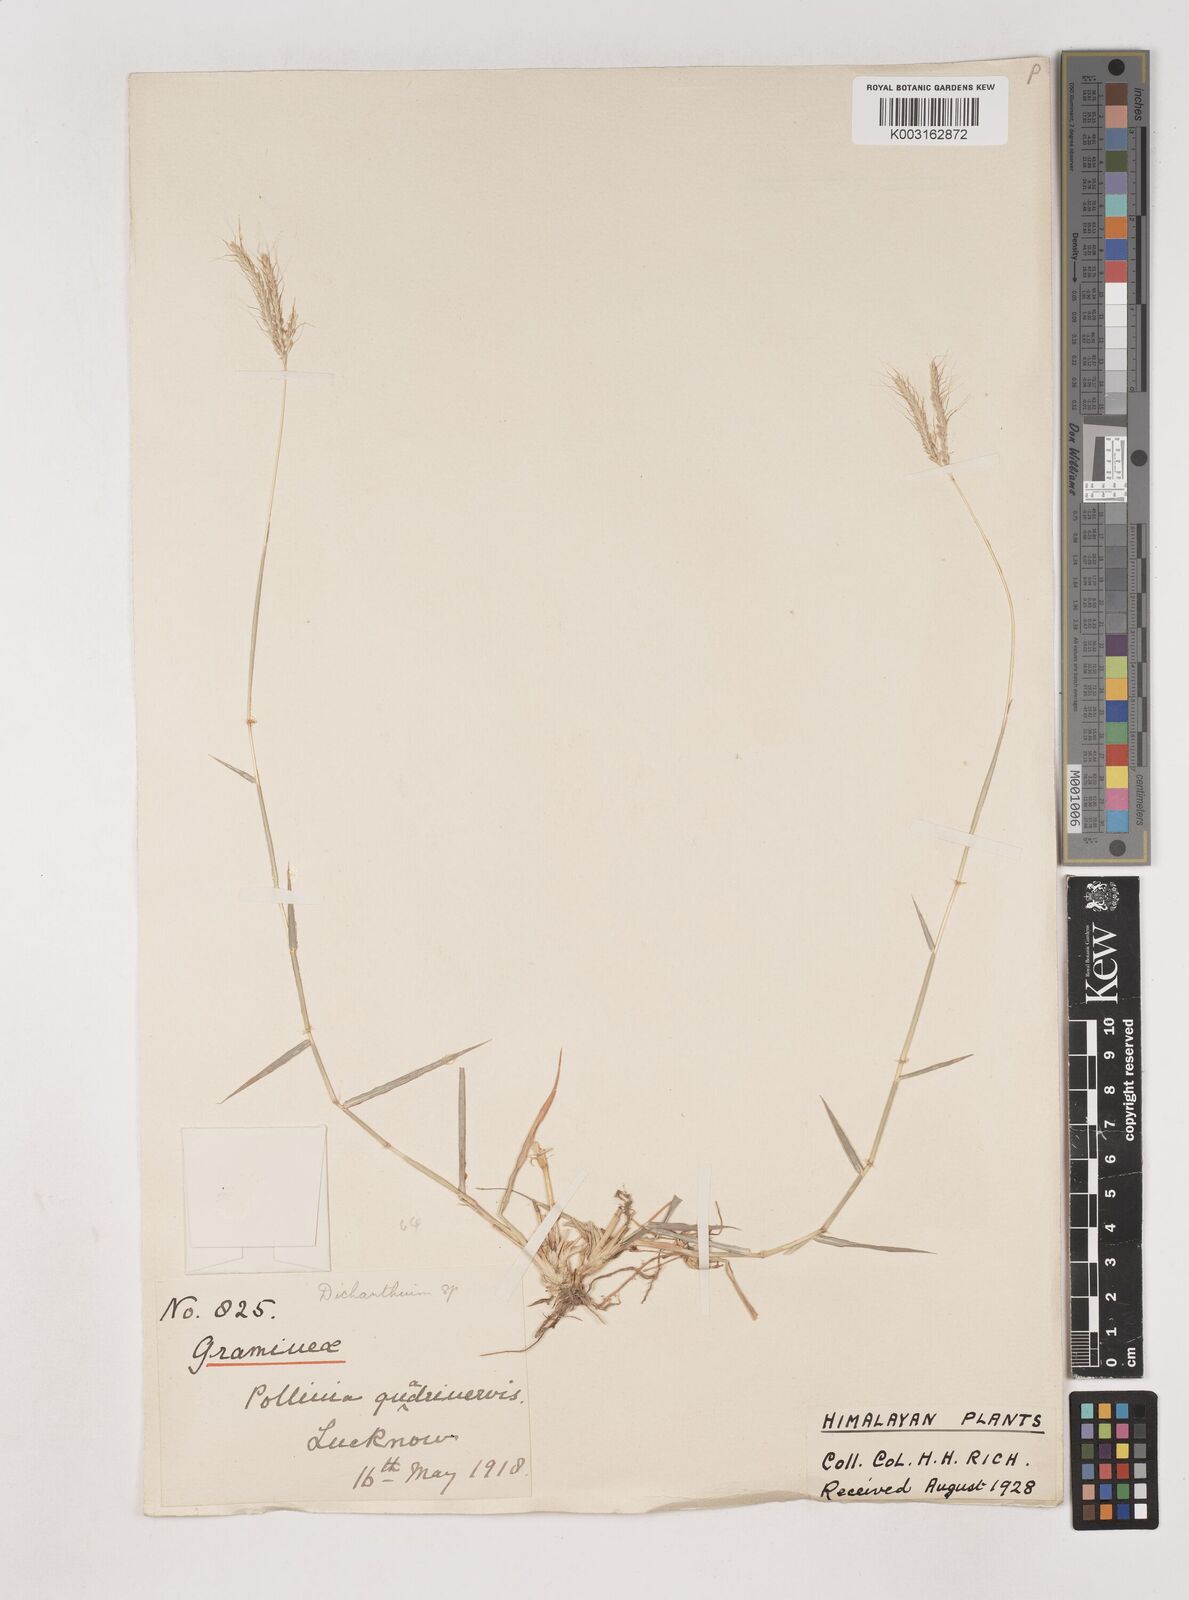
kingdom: Plantae
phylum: Tracheophyta
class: Liliopsida
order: Poales
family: Poaceae
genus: Dichanthium
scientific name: Dichanthium annulatum
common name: Kleberg's bluestem
